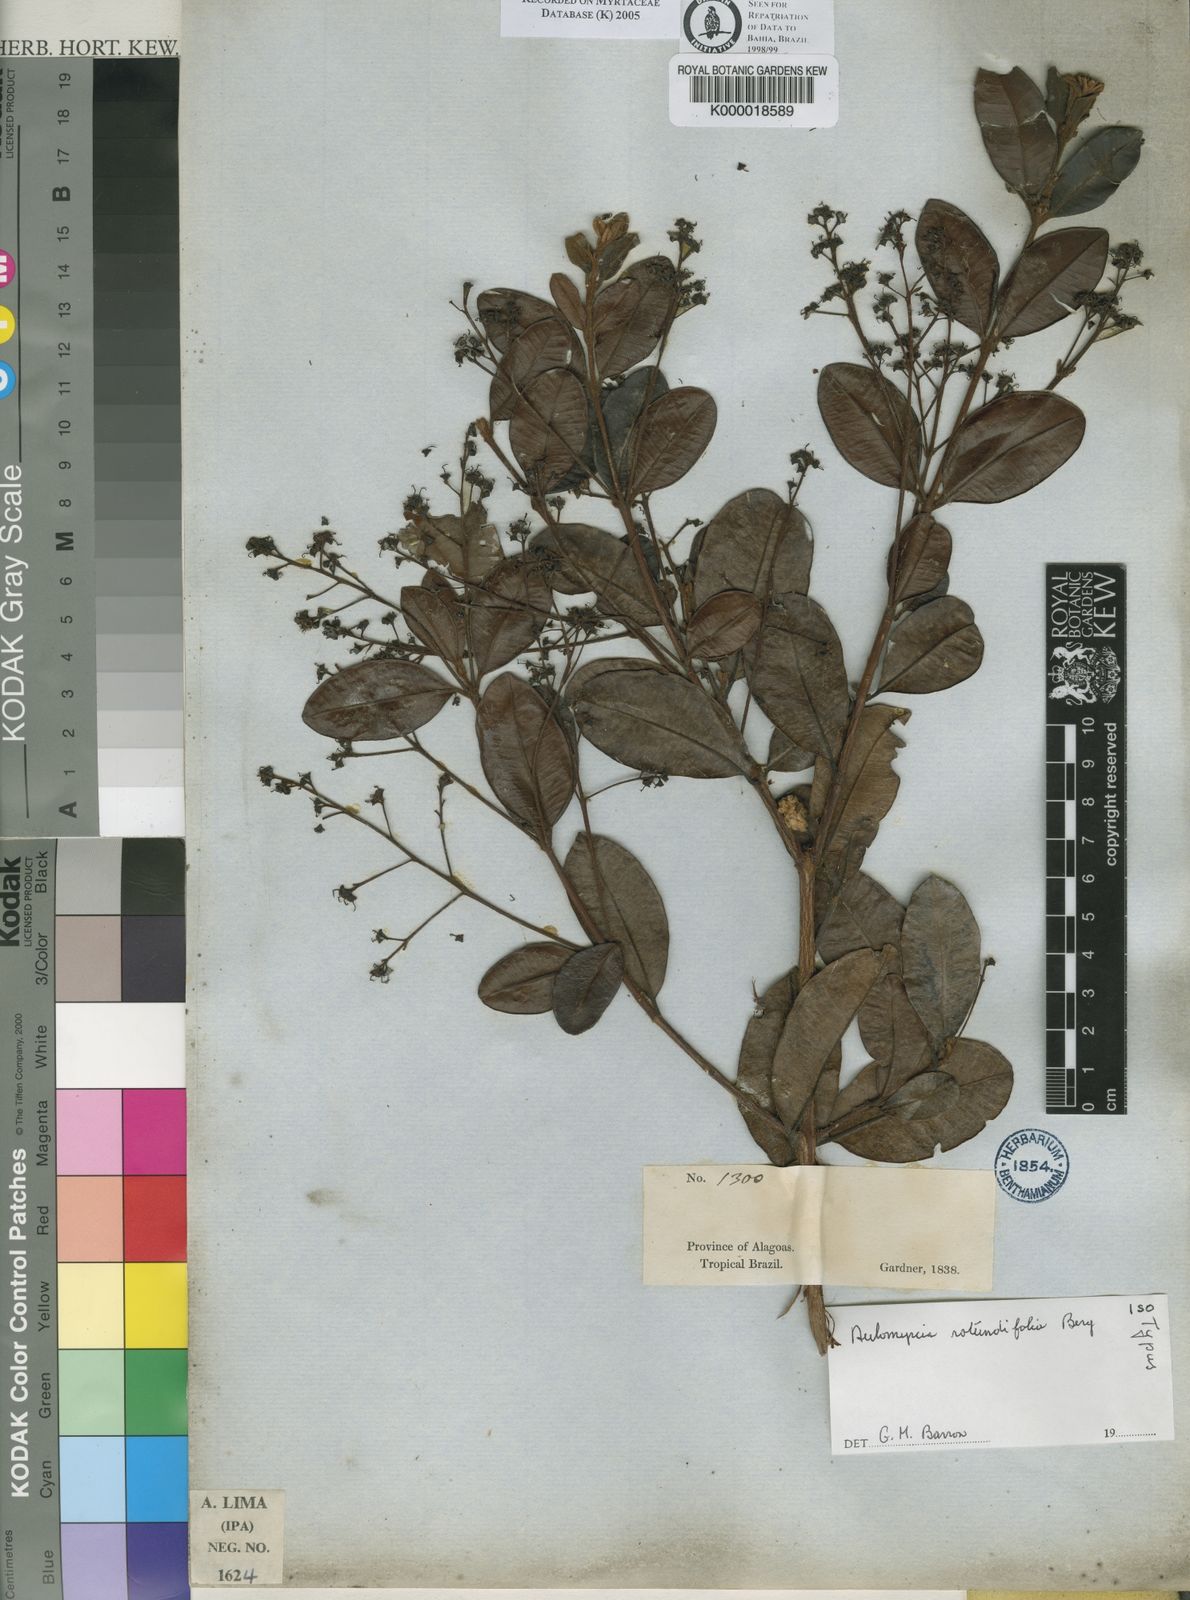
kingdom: Plantae
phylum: Tracheophyta
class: Magnoliopsida
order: Myrtales
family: Myrtaceae
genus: Myrcia
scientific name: Myrcia rotundifolia
